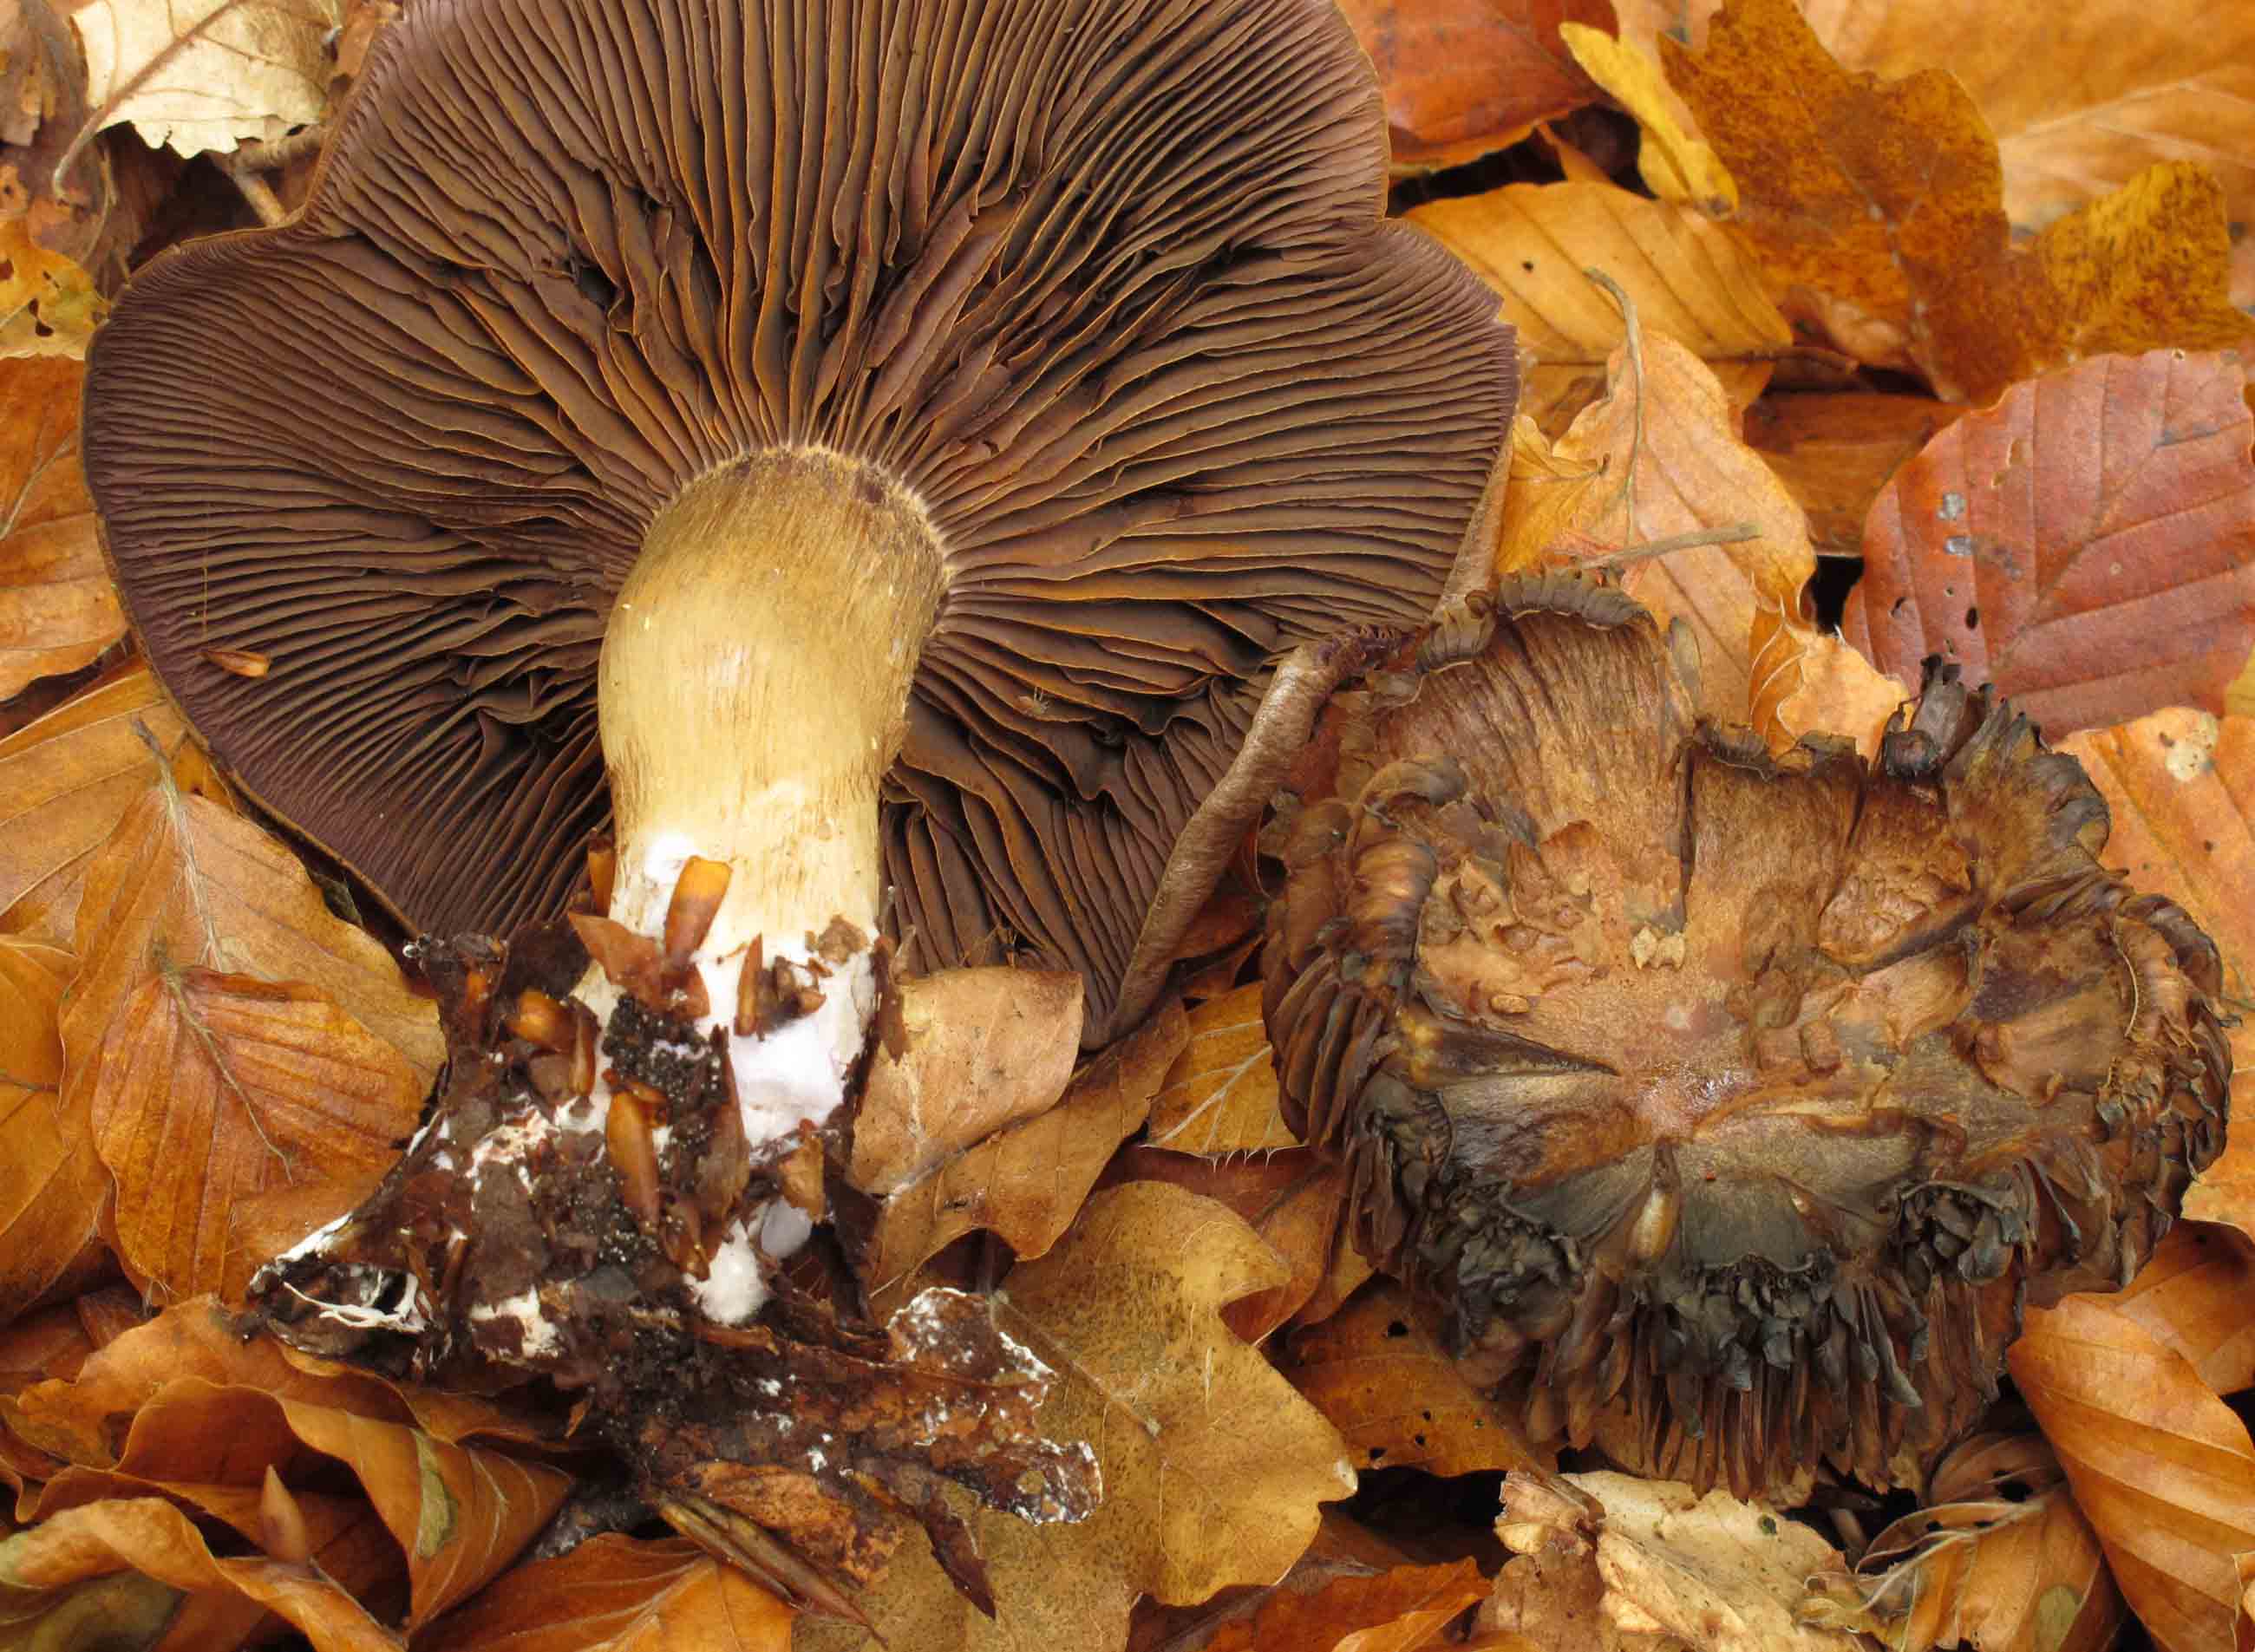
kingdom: Fungi
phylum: Basidiomycota
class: Agaricomycetes
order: Agaricales
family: Cortinariaceae
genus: Cortinarius
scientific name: Cortinarius
